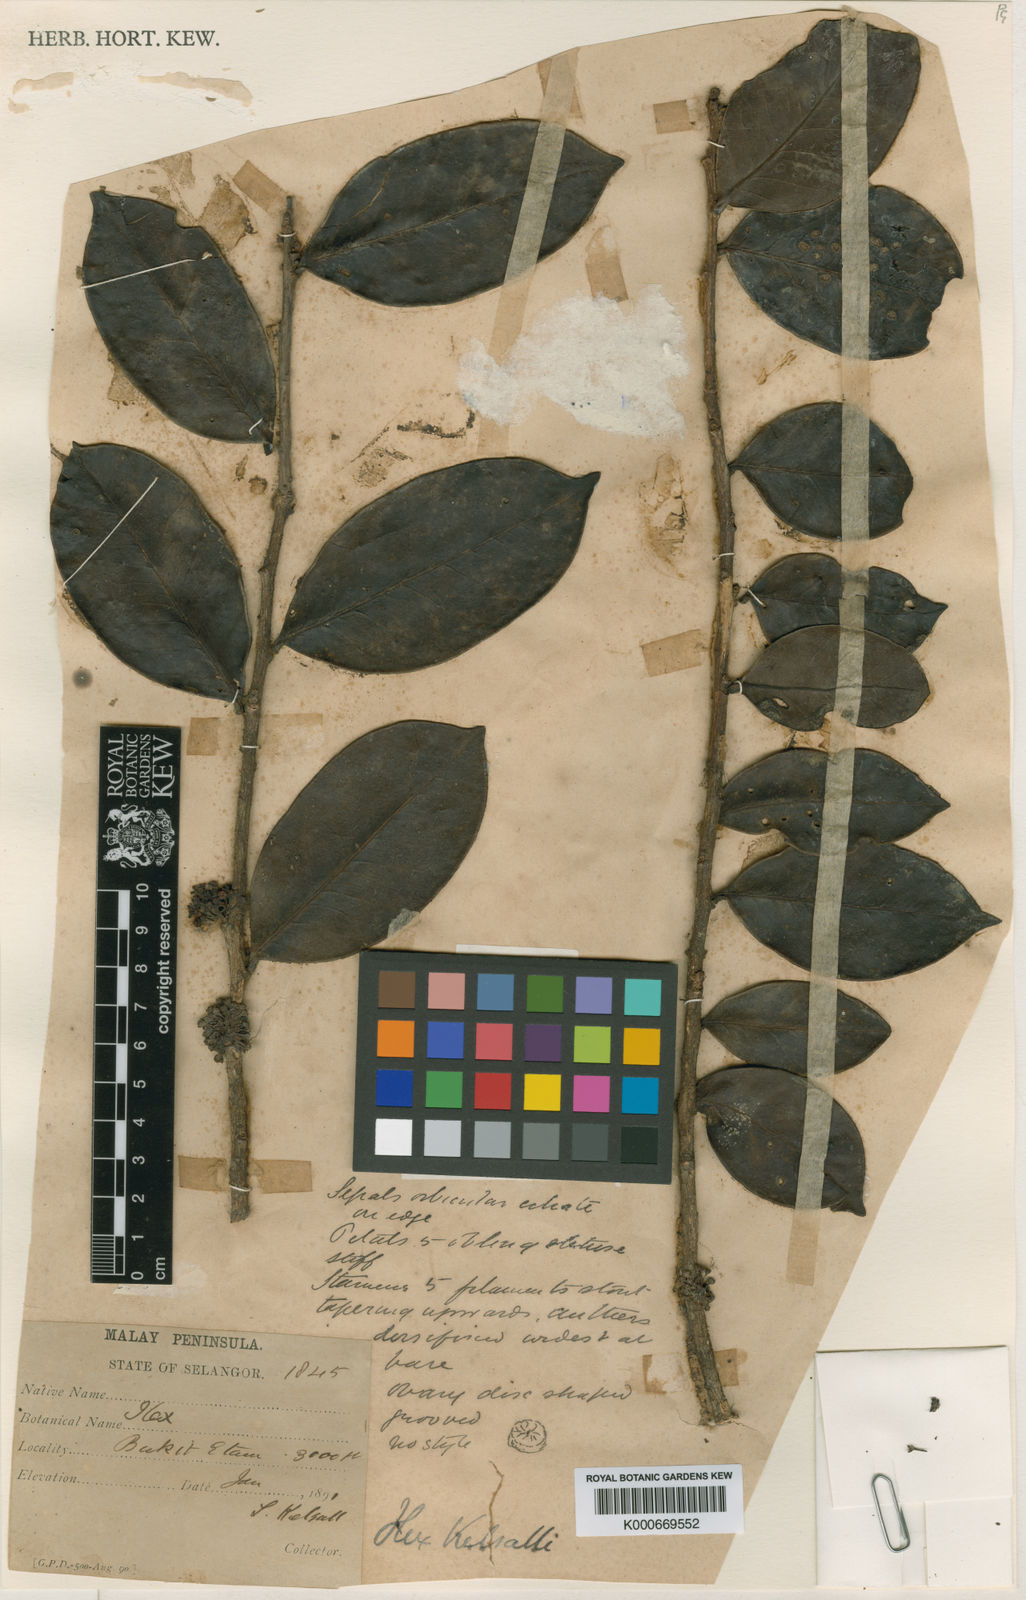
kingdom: Plantae
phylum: Tracheophyta
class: Magnoliopsida
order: Aquifoliales
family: Aquifoliaceae
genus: Ilex
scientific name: Ilex kelsallii
